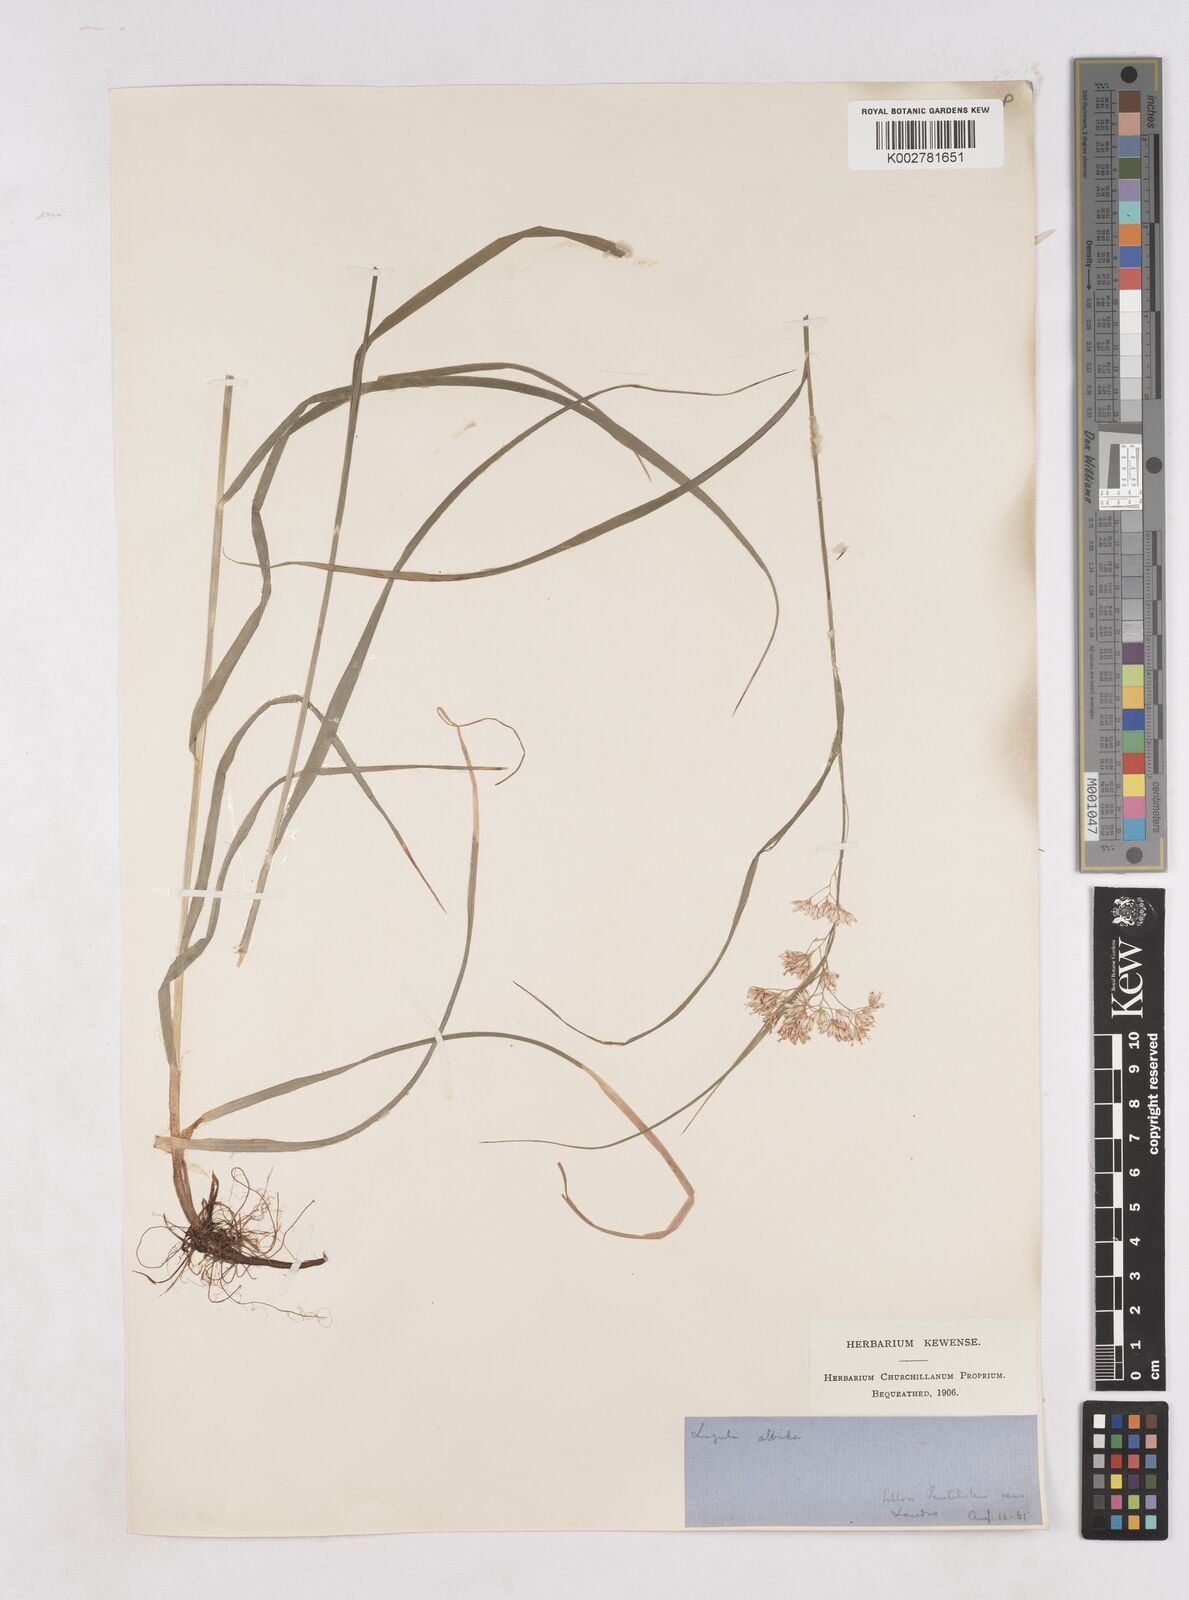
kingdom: Plantae
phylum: Tracheophyta
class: Liliopsida
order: Poales
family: Juncaceae
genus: Luzula
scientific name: Luzula luzuloides
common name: White wood-rush
